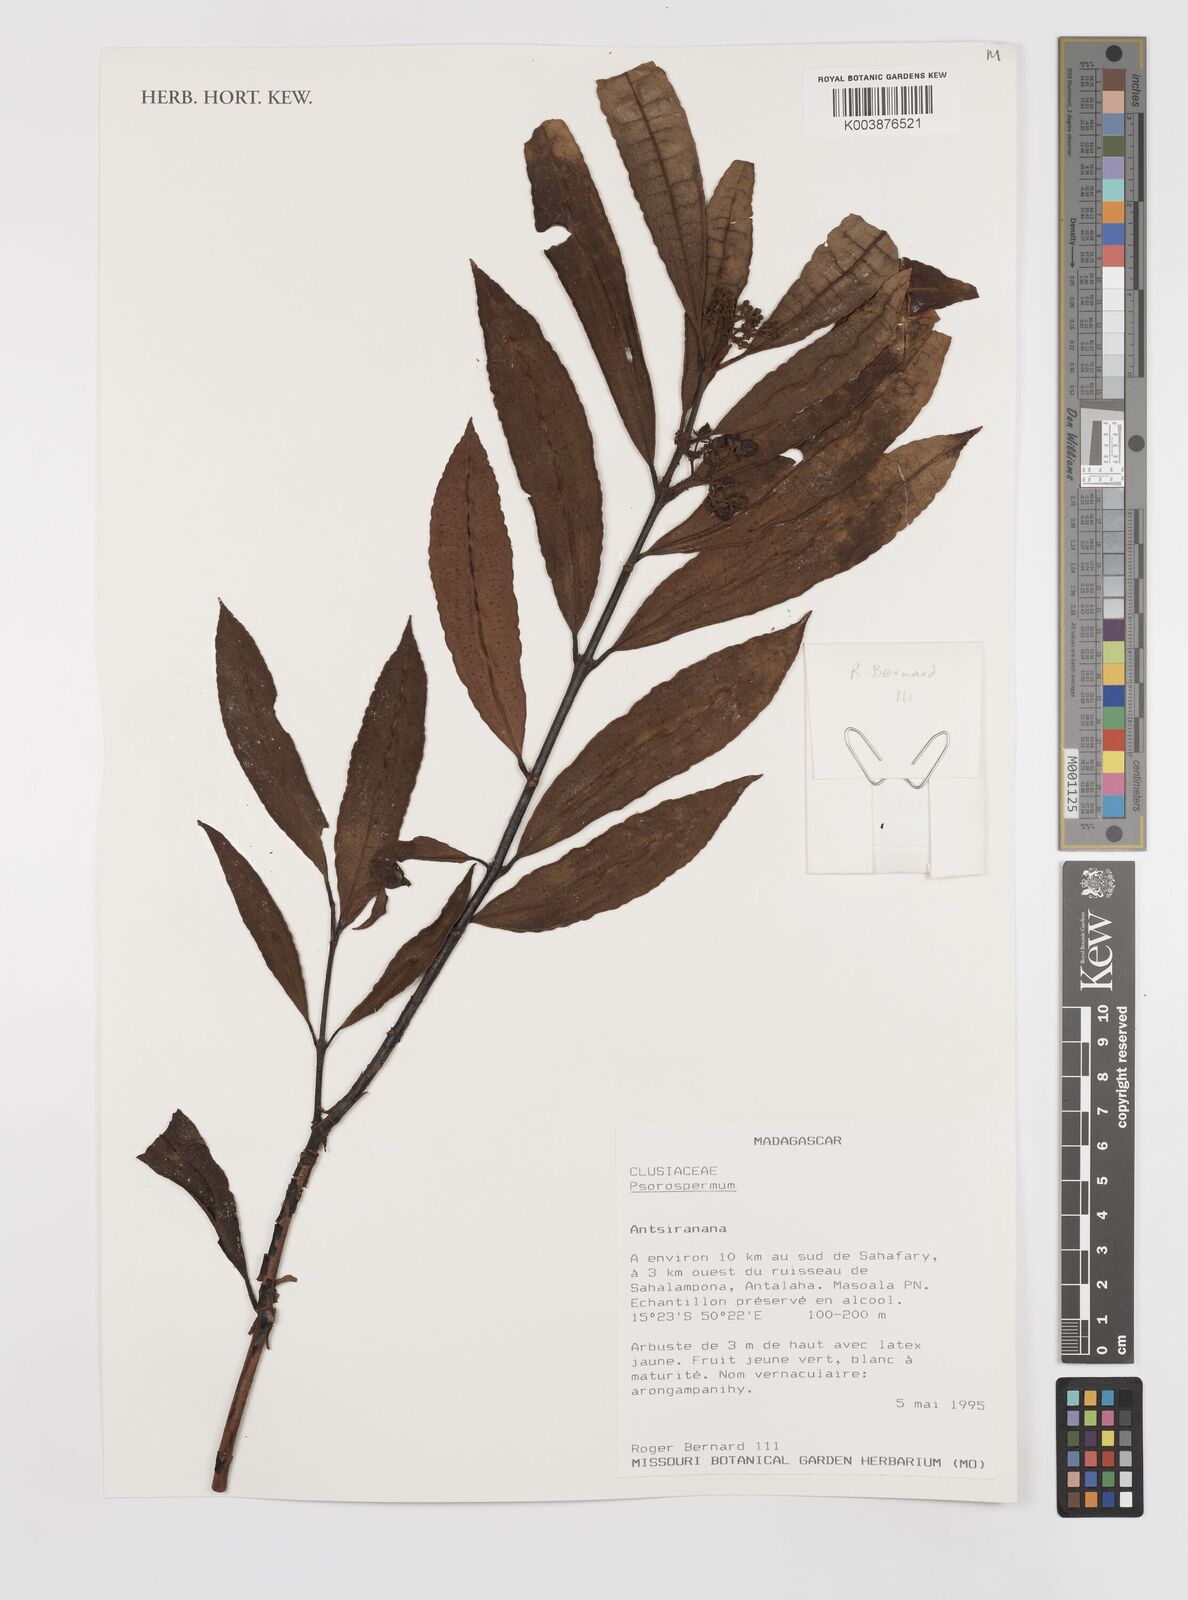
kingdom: Plantae
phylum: Tracheophyta
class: Magnoliopsida
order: Malpighiales
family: Hypericaceae
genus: Psorospermum
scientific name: Psorospermum
